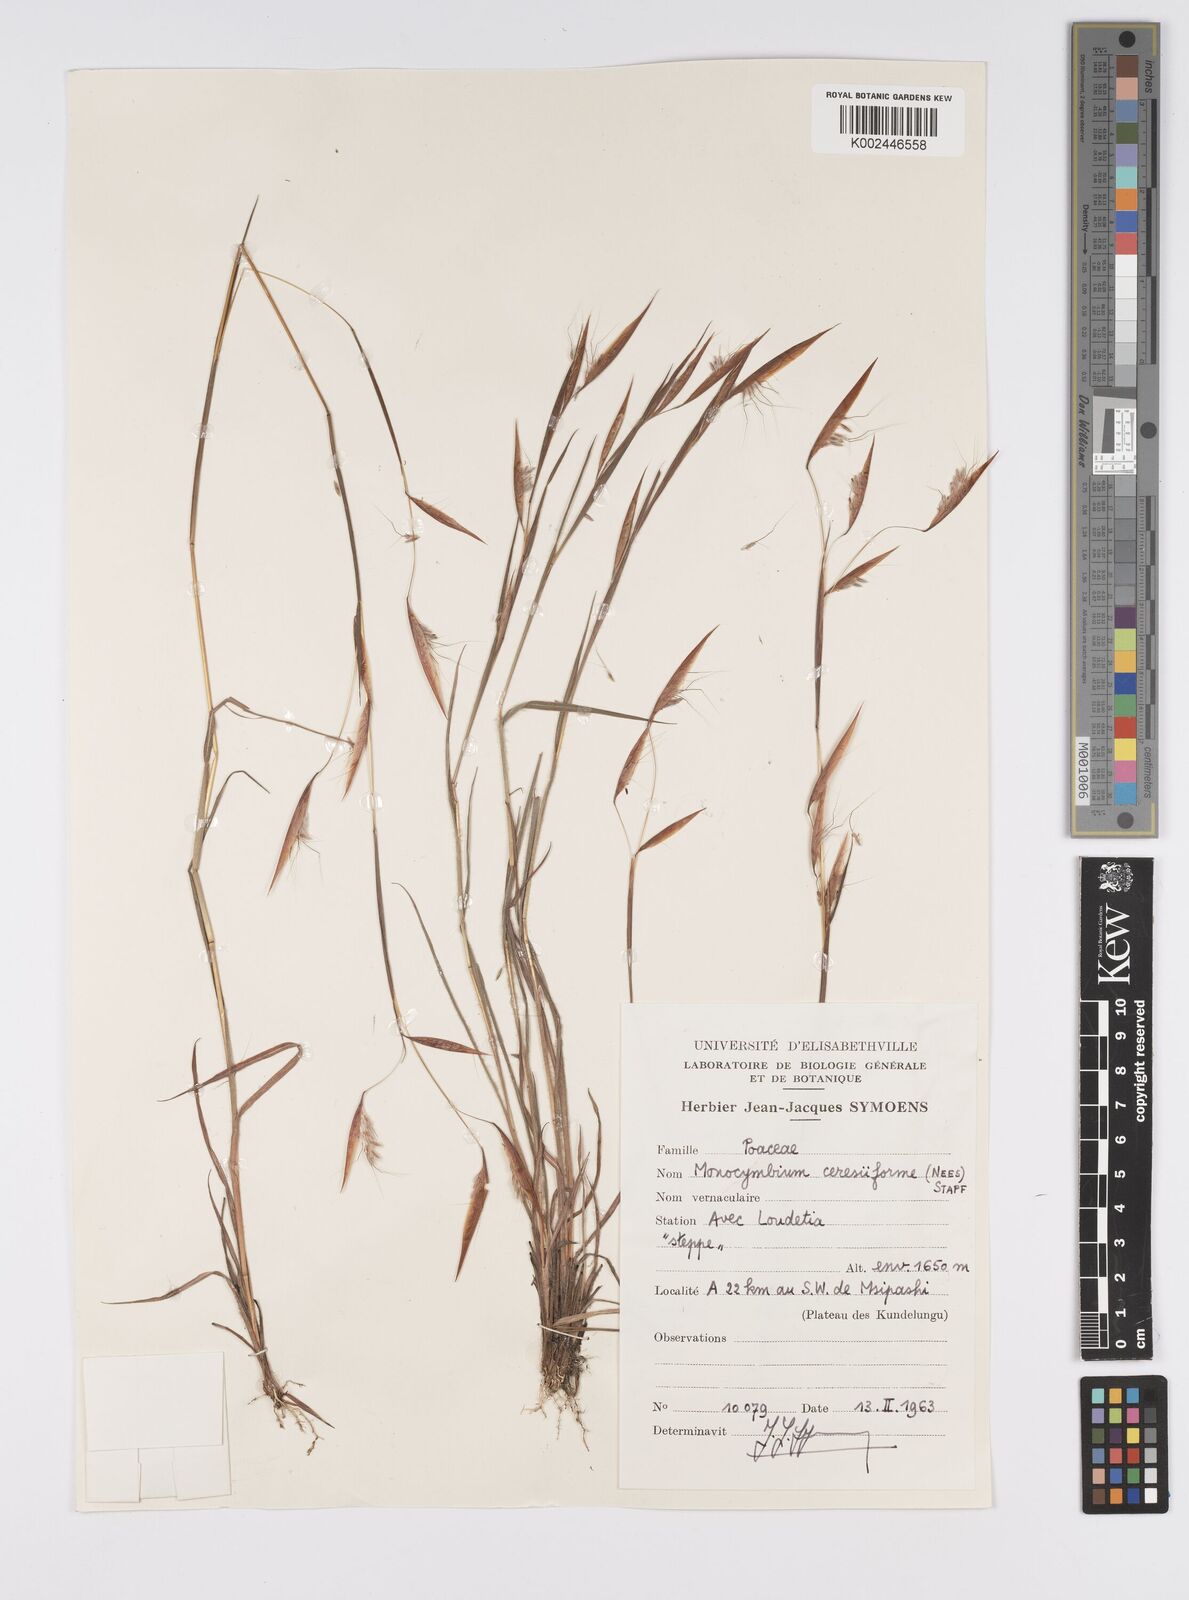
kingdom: Plantae
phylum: Tracheophyta
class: Liliopsida
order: Poales
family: Poaceae
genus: Monocymbium
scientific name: Monocymbium ceresiiforme
